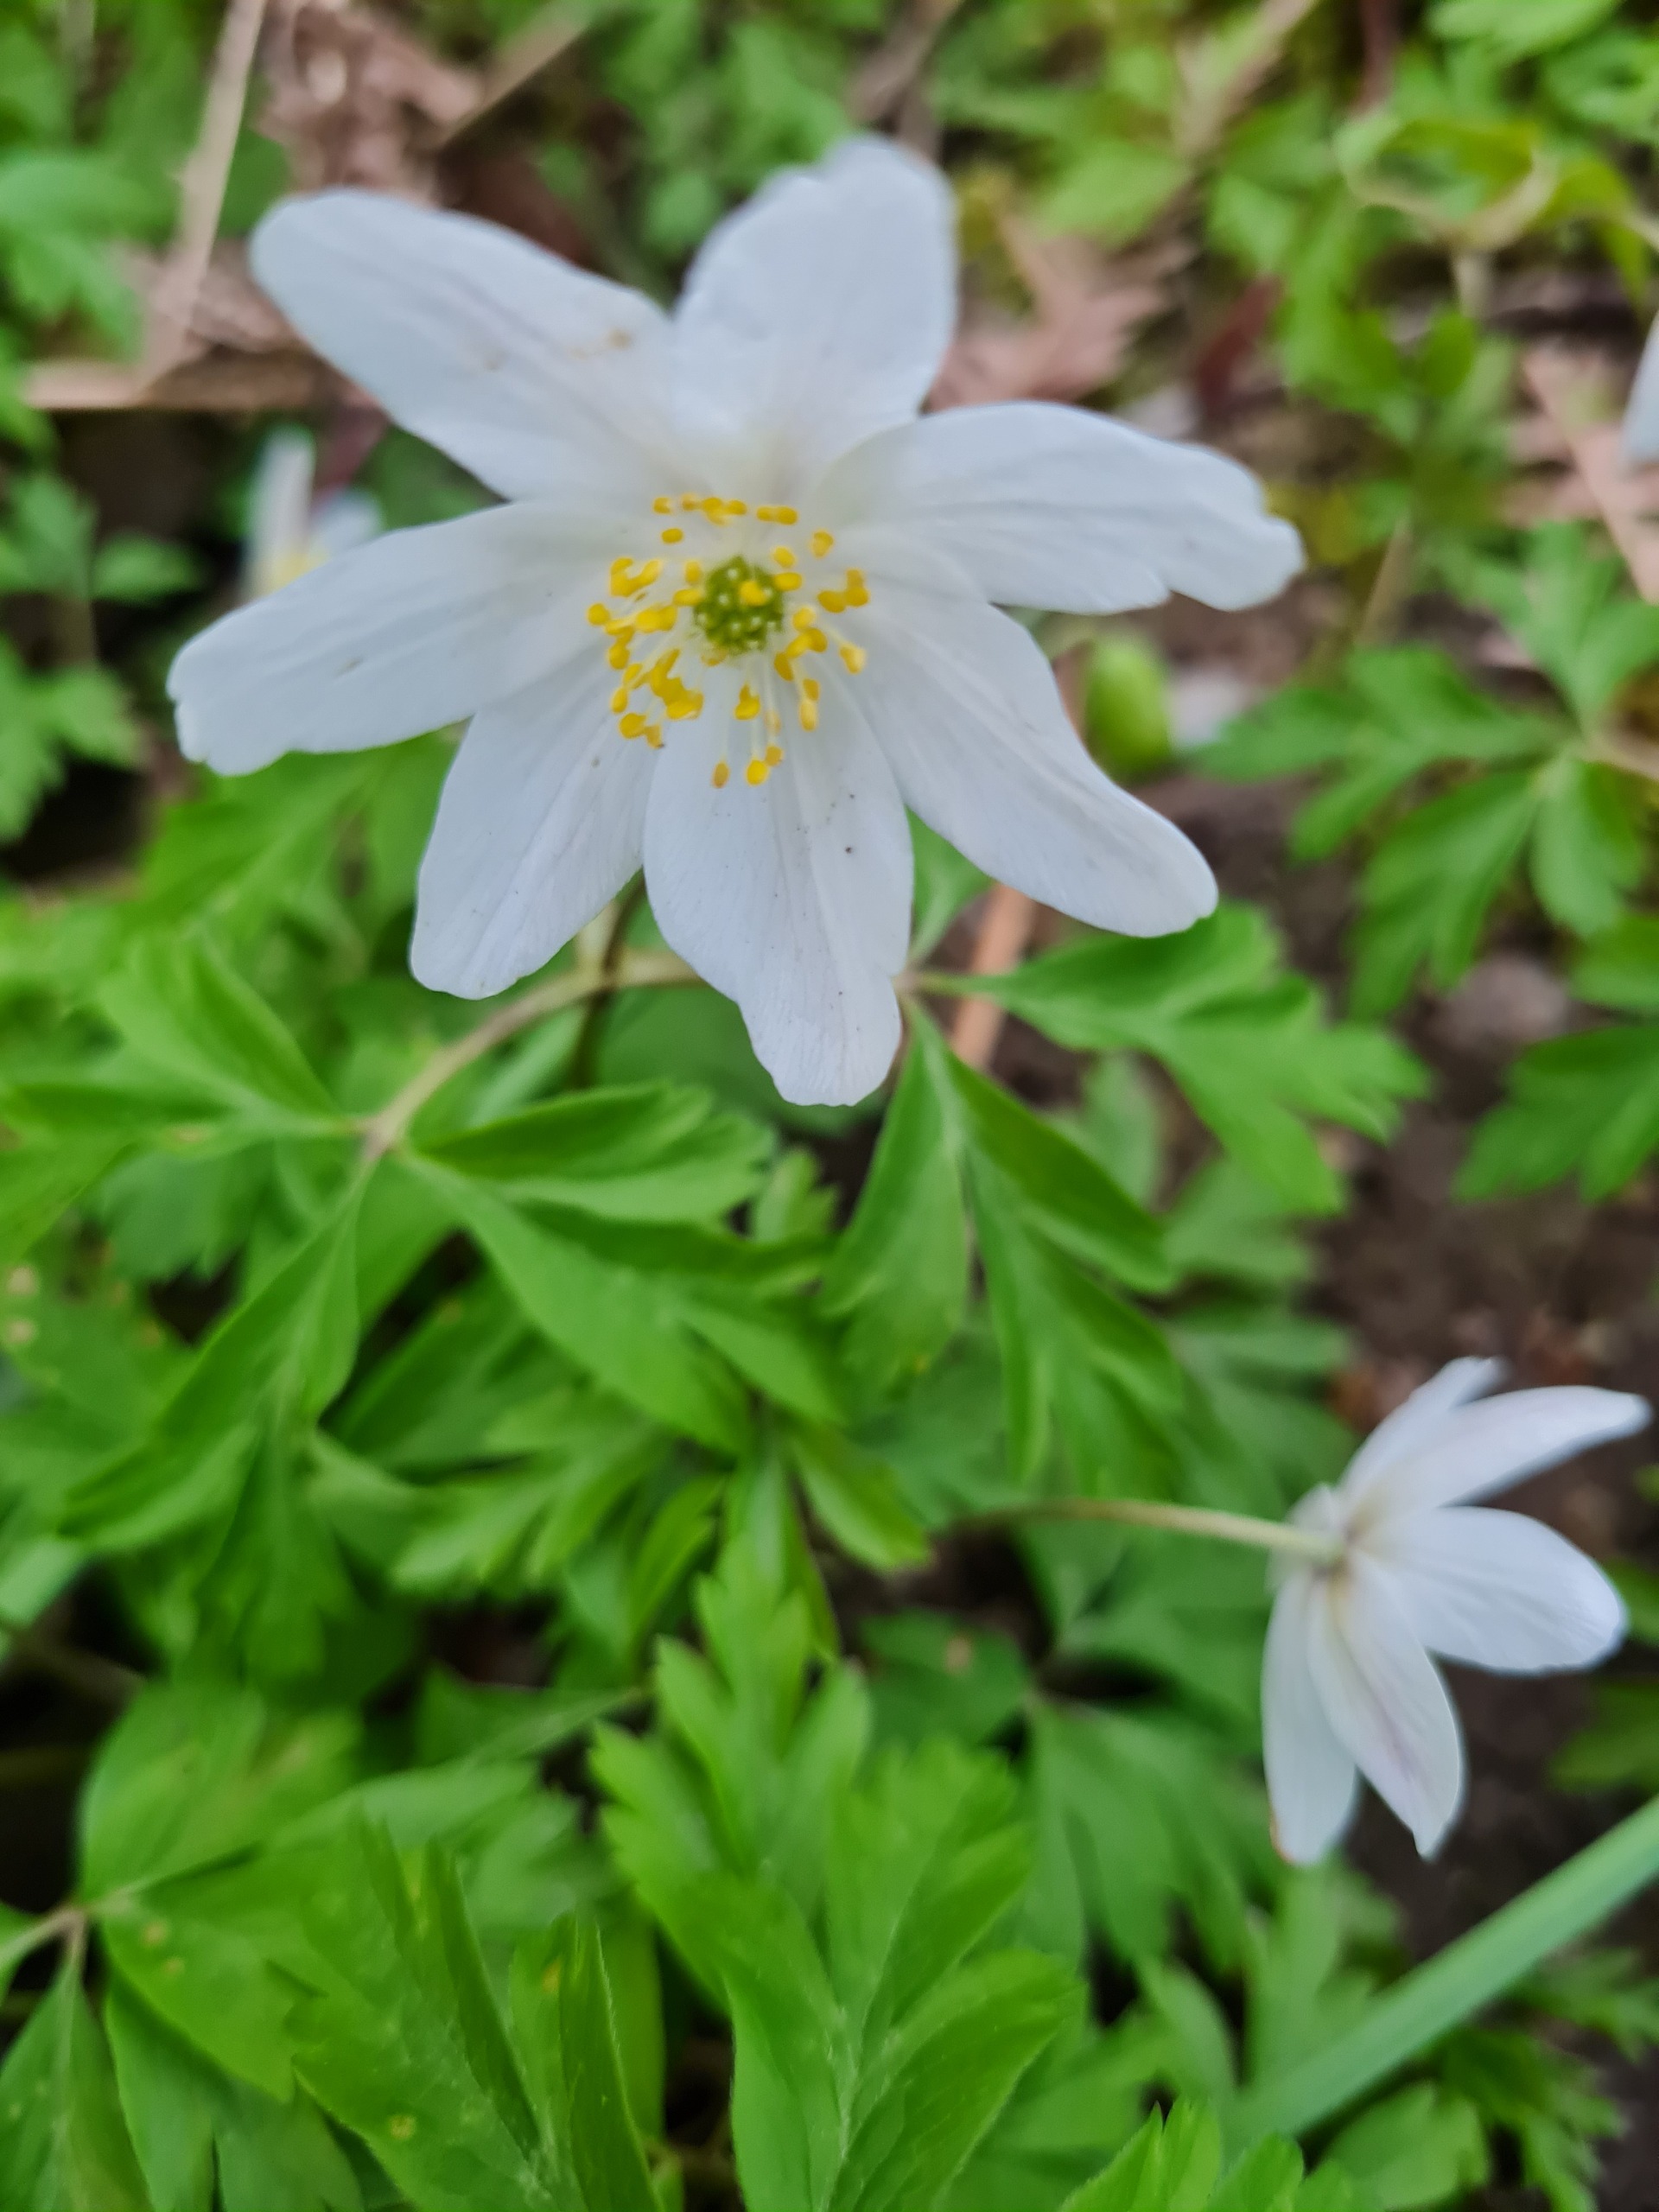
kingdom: Plantae
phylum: Tracheophyta
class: Magnoliopsida
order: Ranunculales
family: Ranunculaceae
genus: Anemone
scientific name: Anemone nemorosa
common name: Hvid anemone
